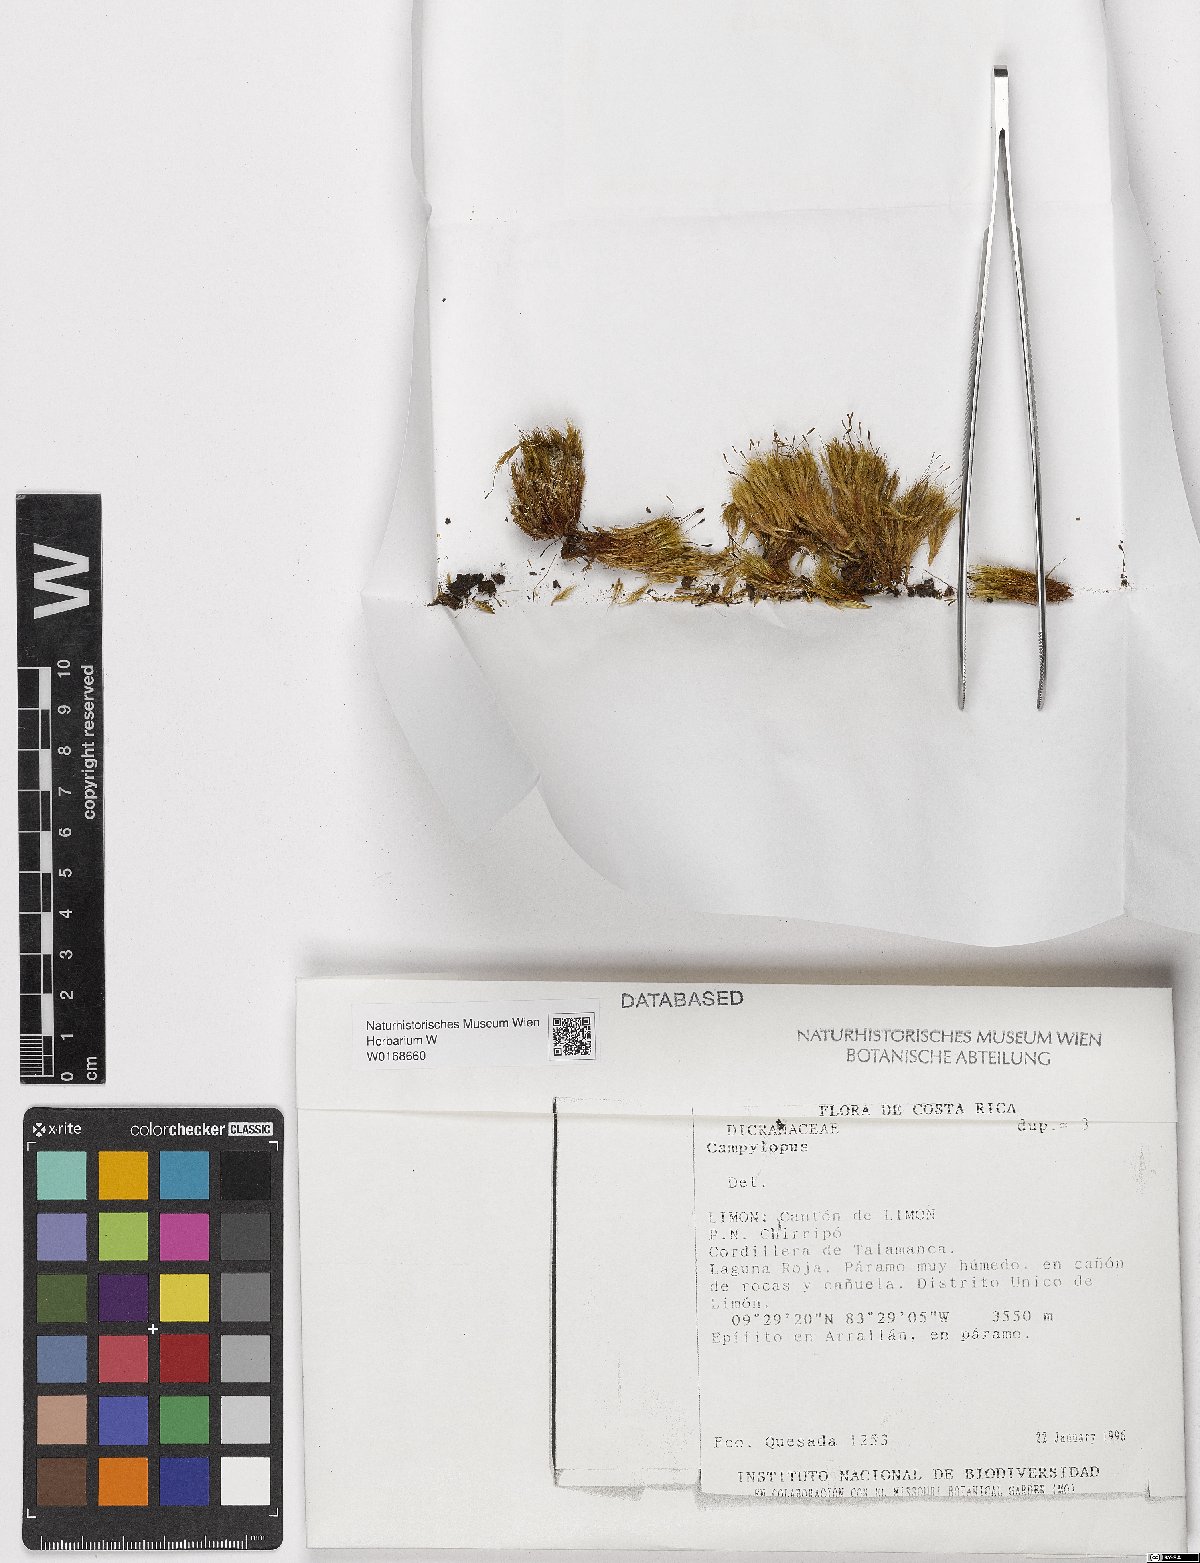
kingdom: Plantae
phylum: Bryophyta
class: Bryopsida
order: Dicranales
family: Leucobryaceae
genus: Campylopus
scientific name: Campylopus
